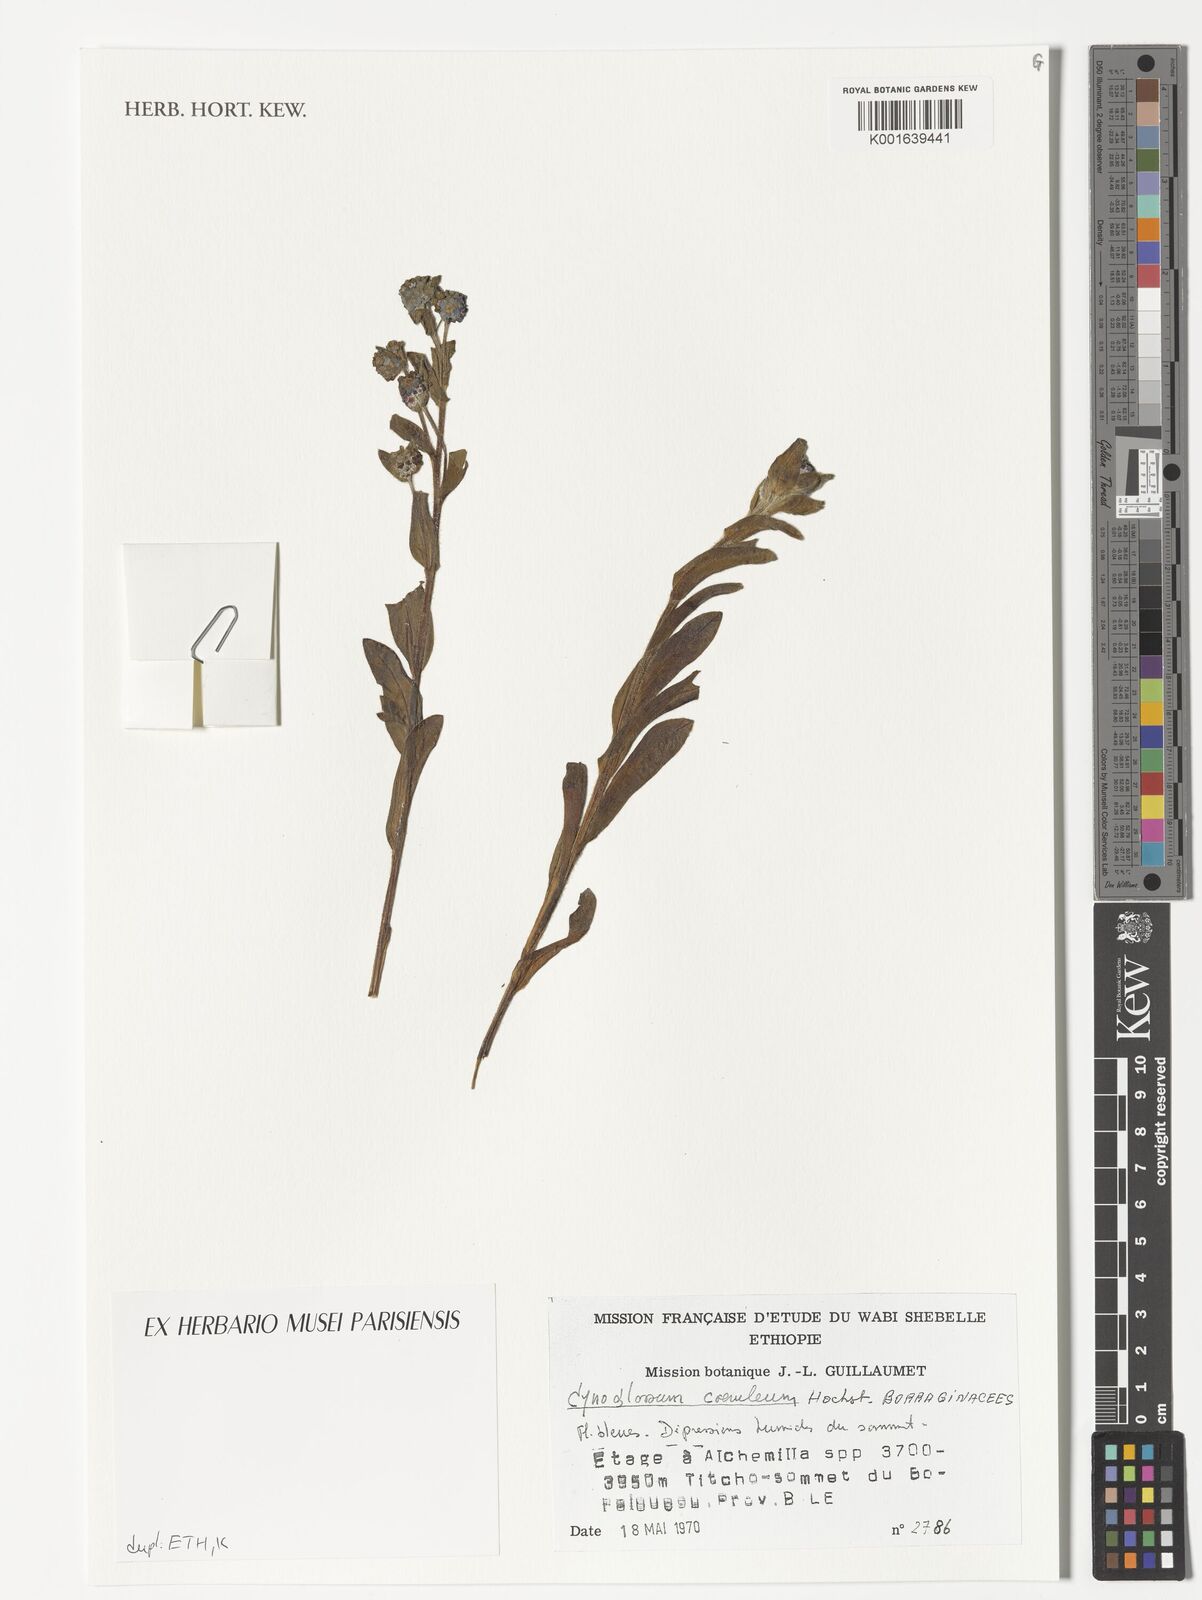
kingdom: Plantae
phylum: Tracheophyta
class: Magnoliopsida
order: Boraginales
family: Boraginaceae
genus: Paracynoglossum
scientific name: Paracynoglossum afrocaeruleum
